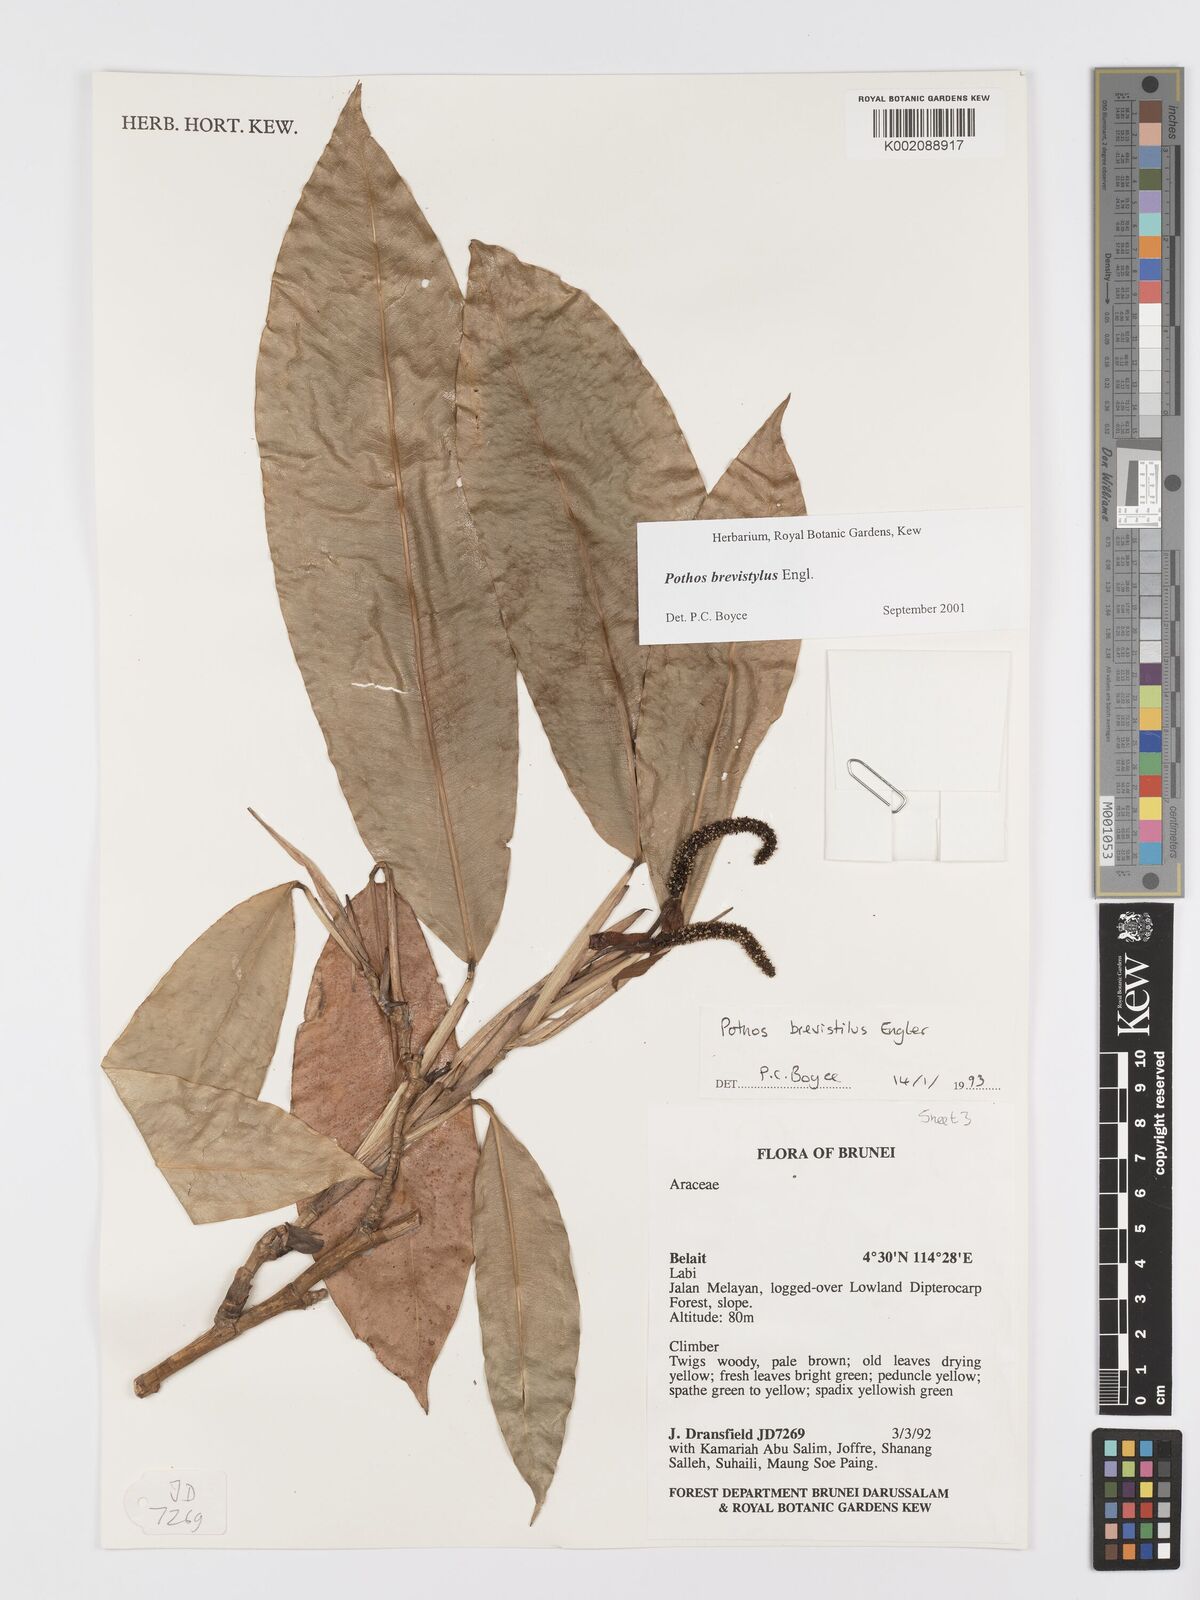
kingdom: Plantae
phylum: Tracheophyta
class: Liliopsida
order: Alismatales
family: Araceae
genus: Pothos
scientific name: Pothos brevistylus
